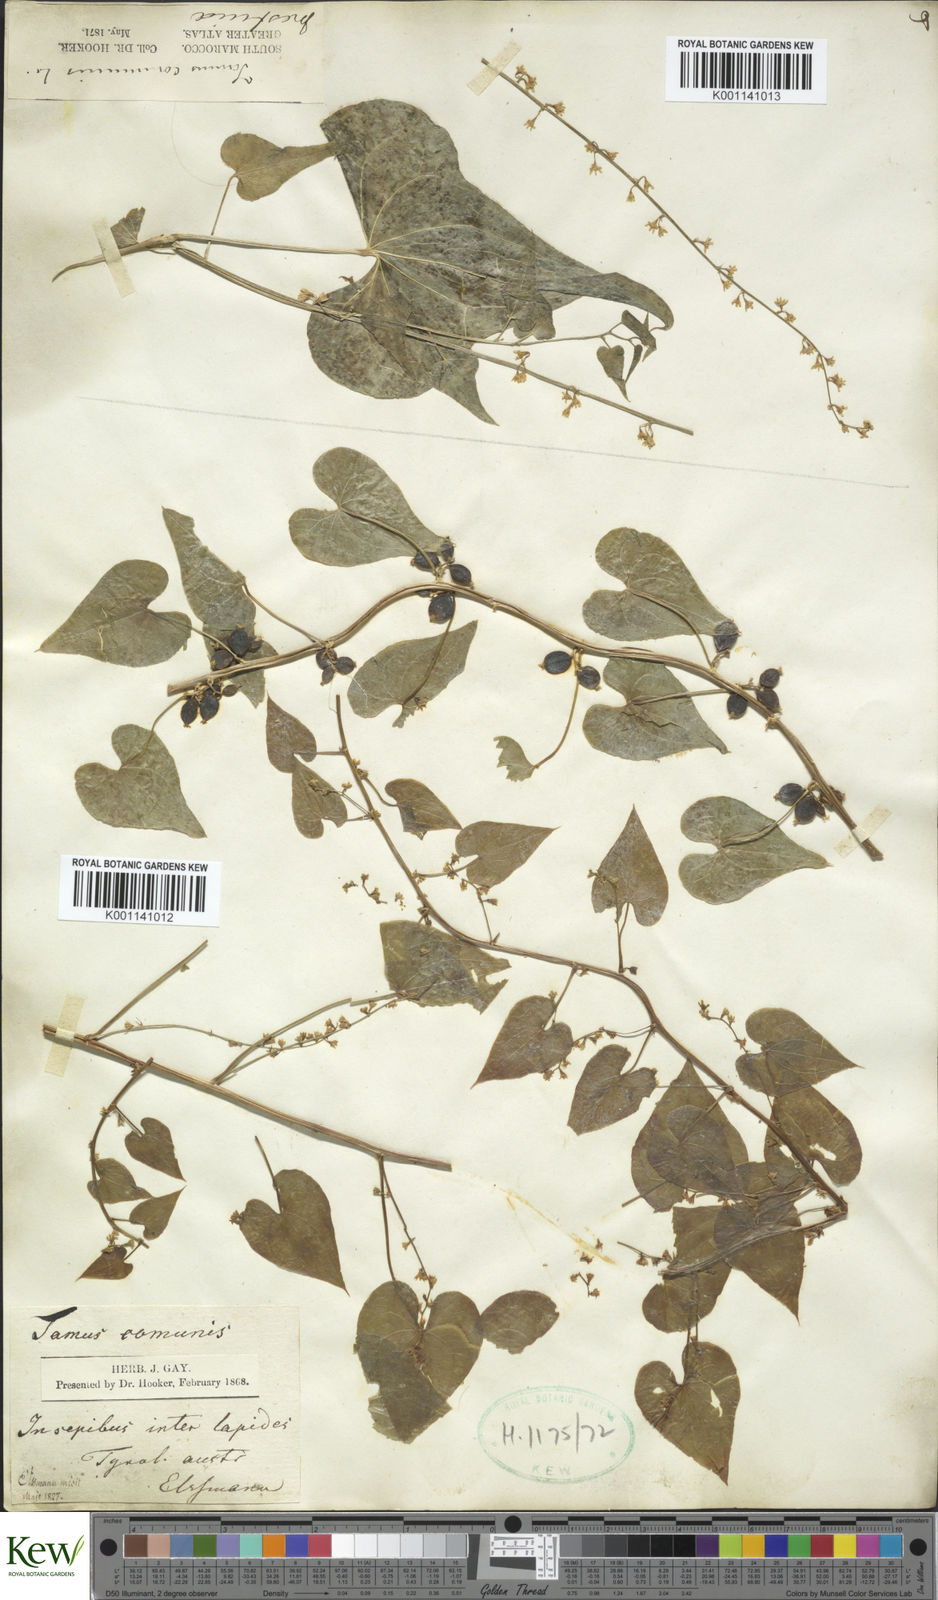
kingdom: Plantae
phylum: Tracheophyta
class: Liliopsida
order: Dioscoreales
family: Dioscoreaceae
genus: Dioscorea
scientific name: Dioscorea communis
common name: Black-bindweed
